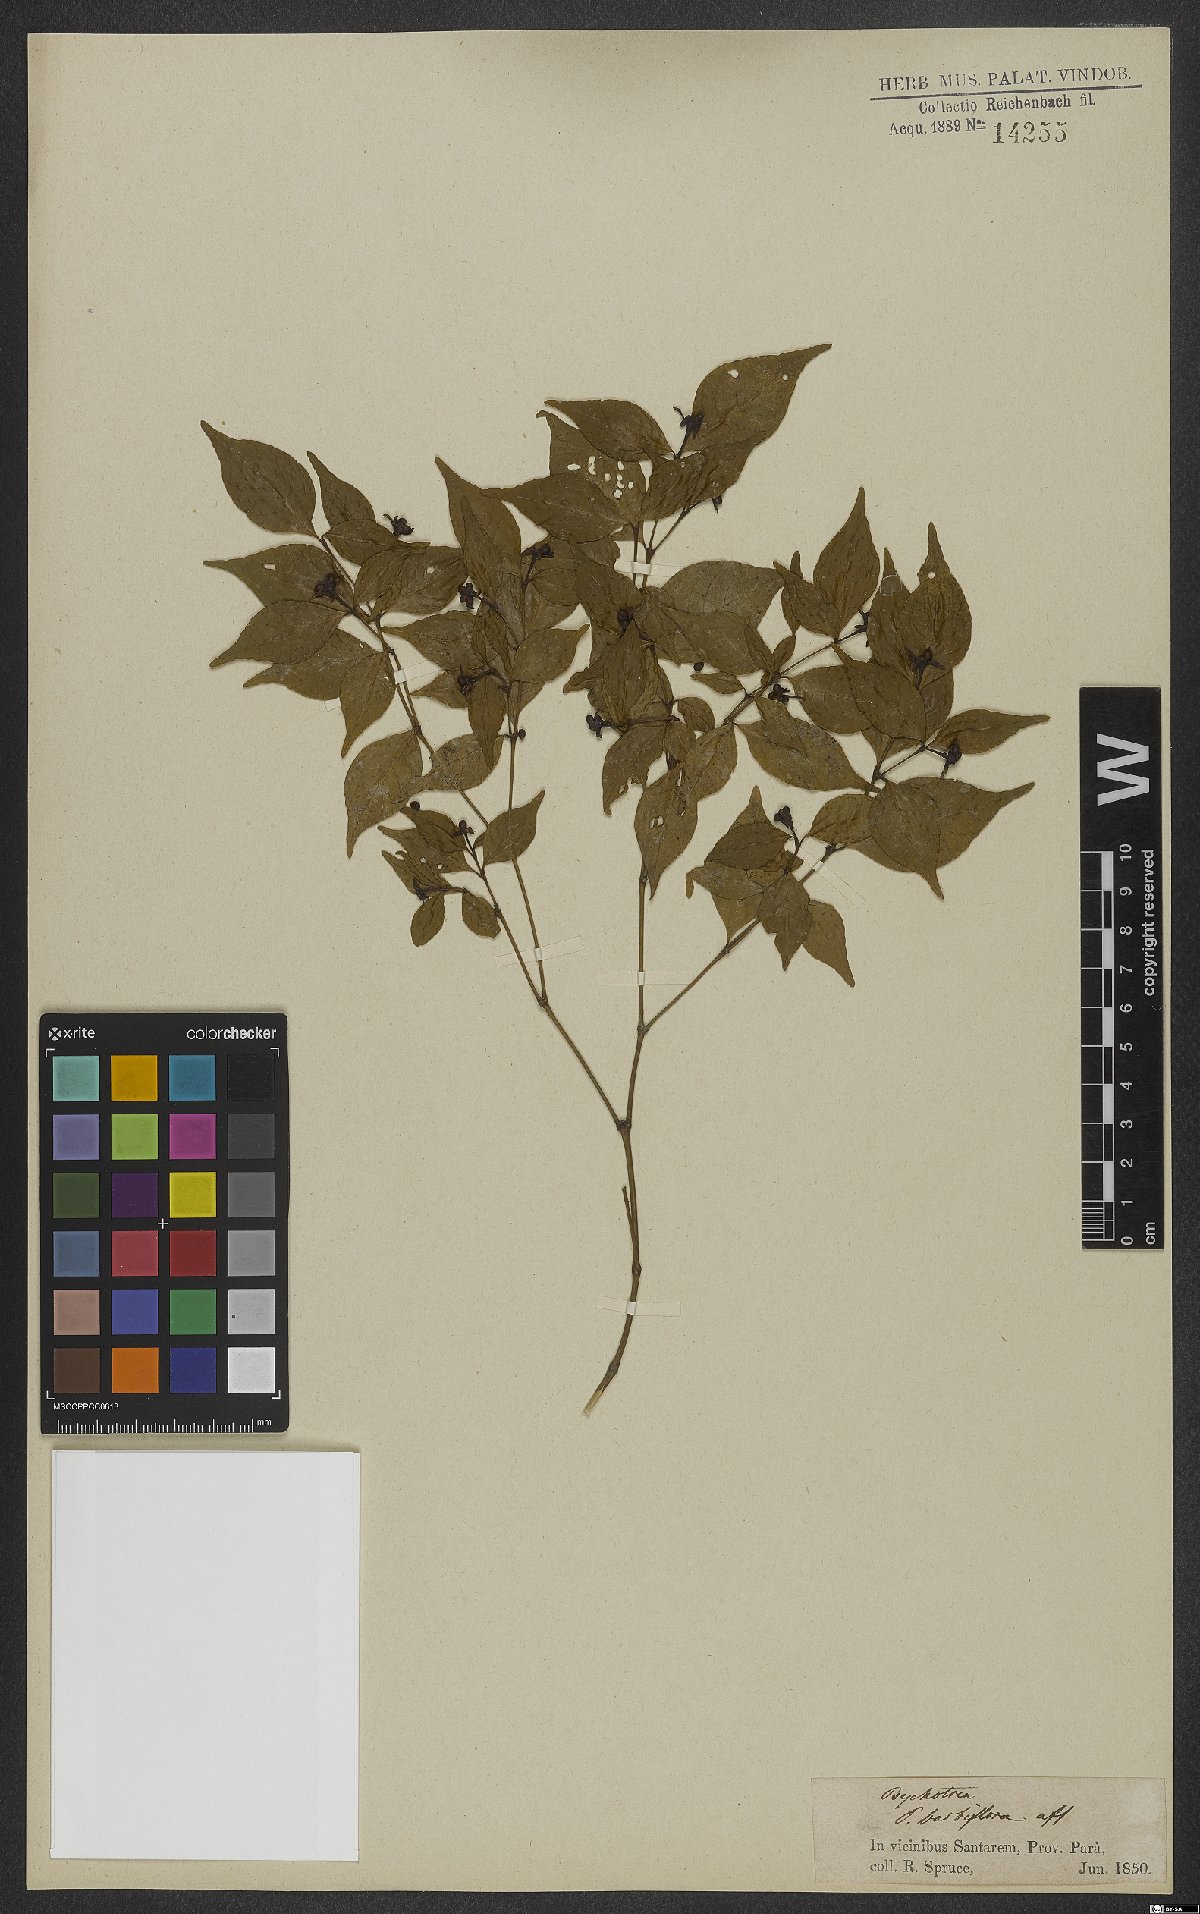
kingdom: Plantae
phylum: Tracheophyta
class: Magnoliopsida
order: Gentianales
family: Rubiaceae
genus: Palicourea
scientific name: Palicourea hoffmannseggiana
